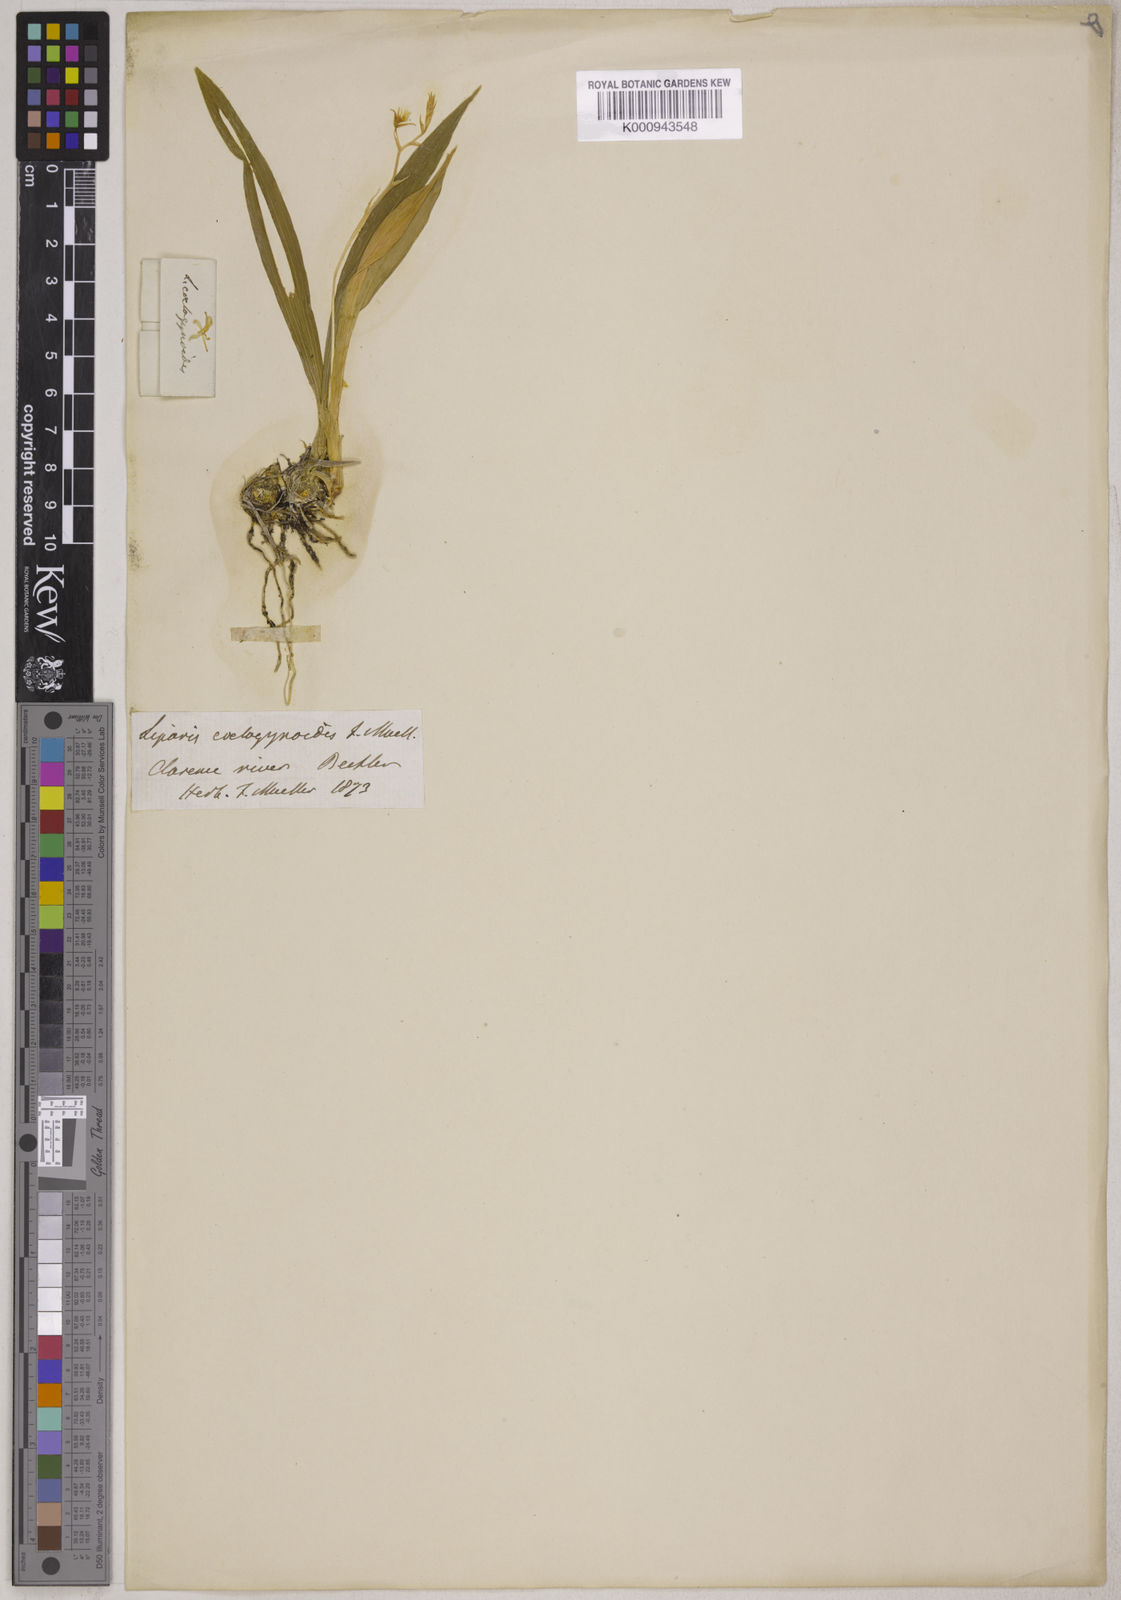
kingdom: Plantae
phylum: Tracheophyta
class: Liliopsida
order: Asparagales
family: Orchidaceae
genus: Liparis
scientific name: Liparis coelogynoides
